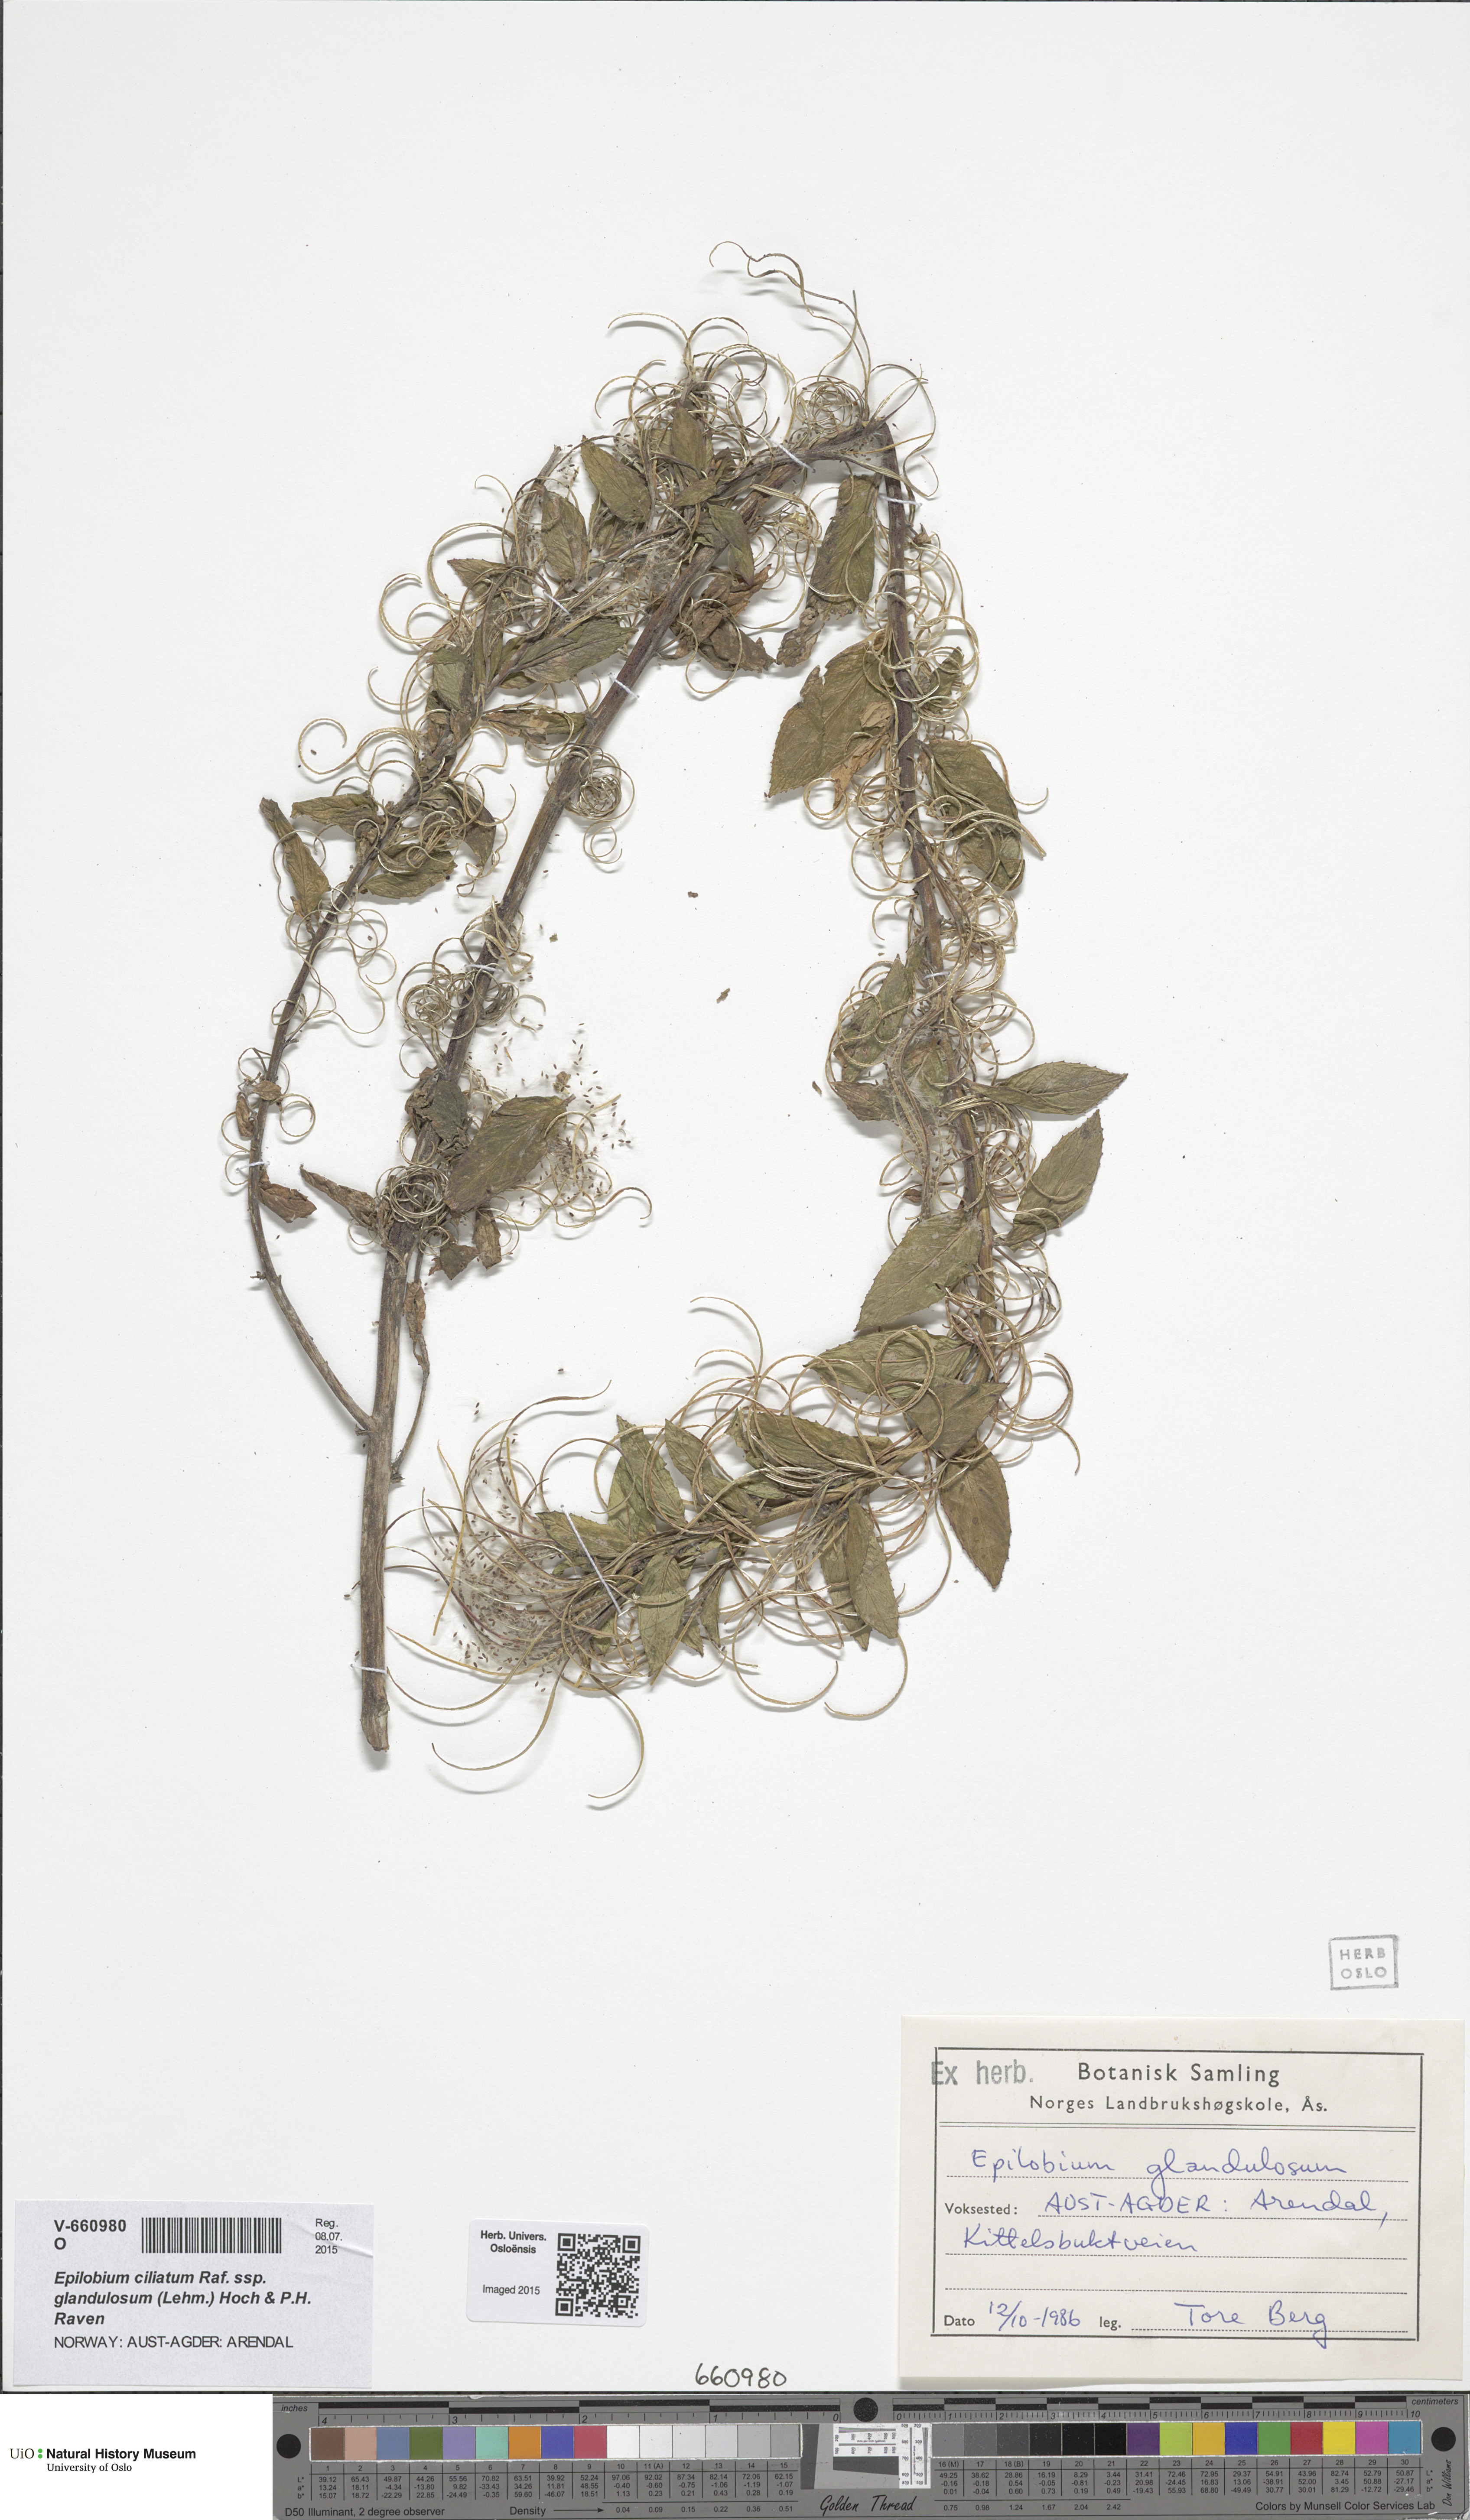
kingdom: Plantae
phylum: Tracheophyta
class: Magnoliopsida
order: Myrtales
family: Onagraceae
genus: Epilobium
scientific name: Epilobium ciliatum
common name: American willowherb
